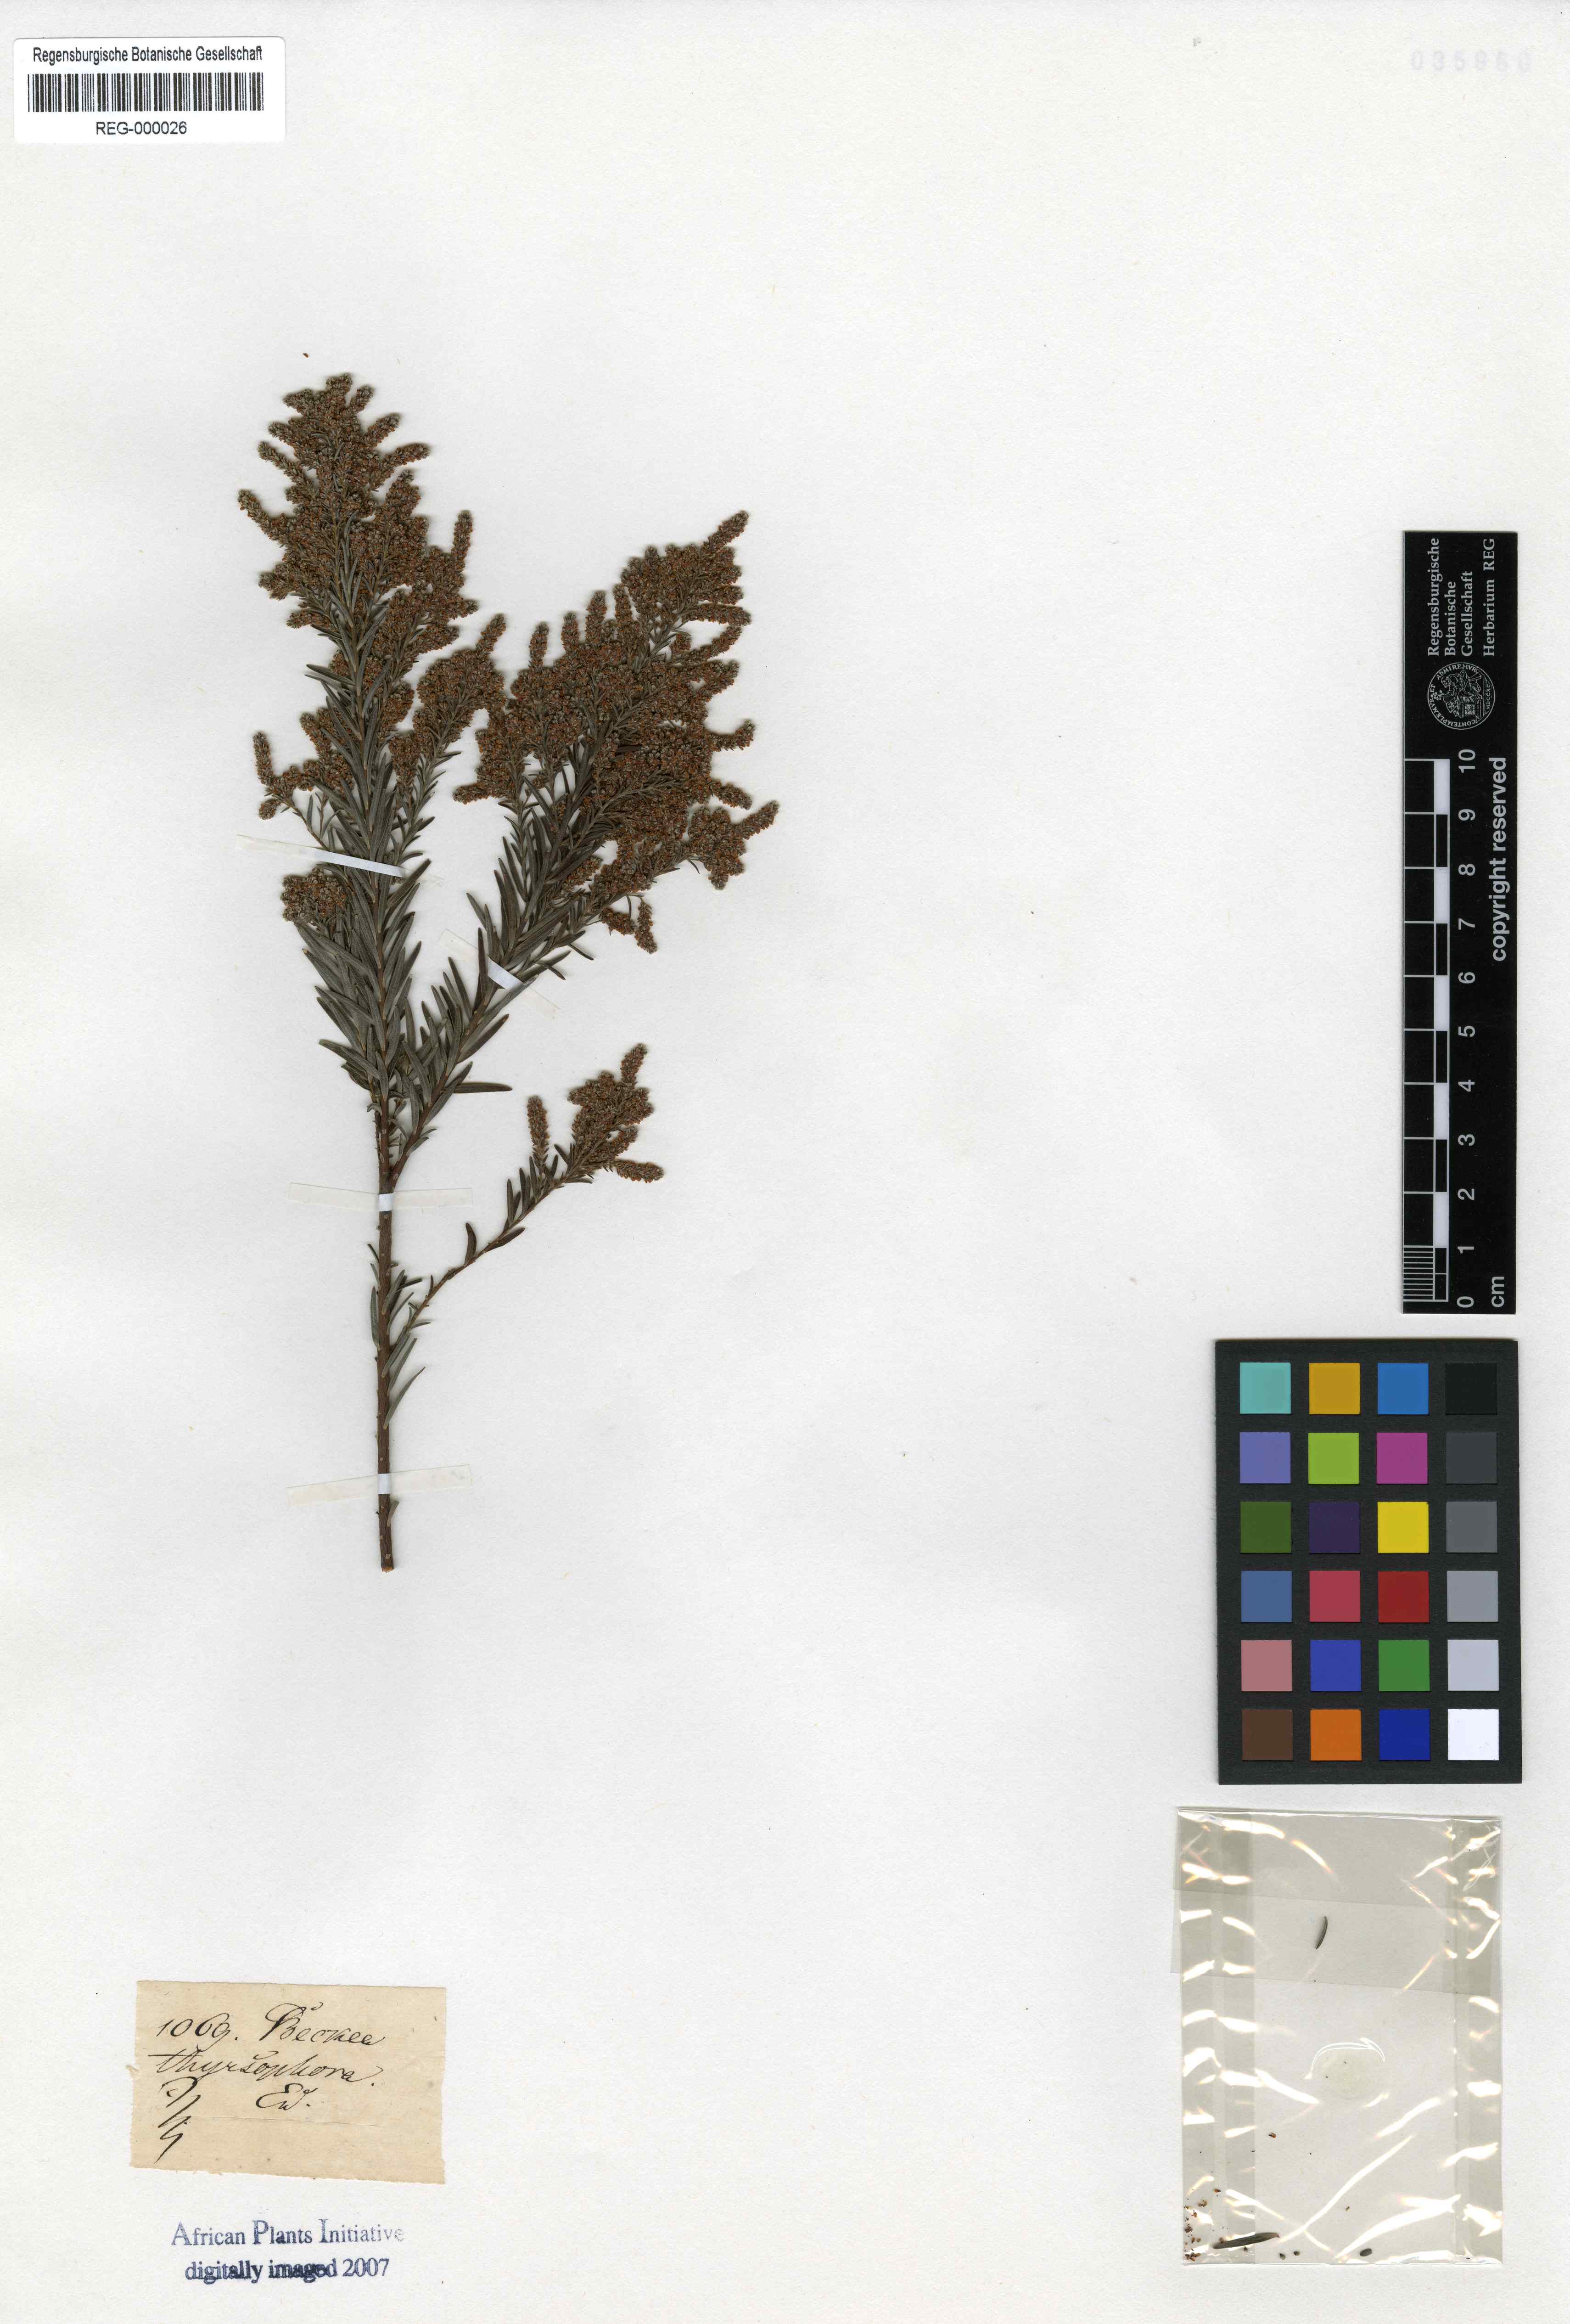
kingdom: Plantae
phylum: Tracheophyta
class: Magnoliopsida
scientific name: Magnoliopsida
